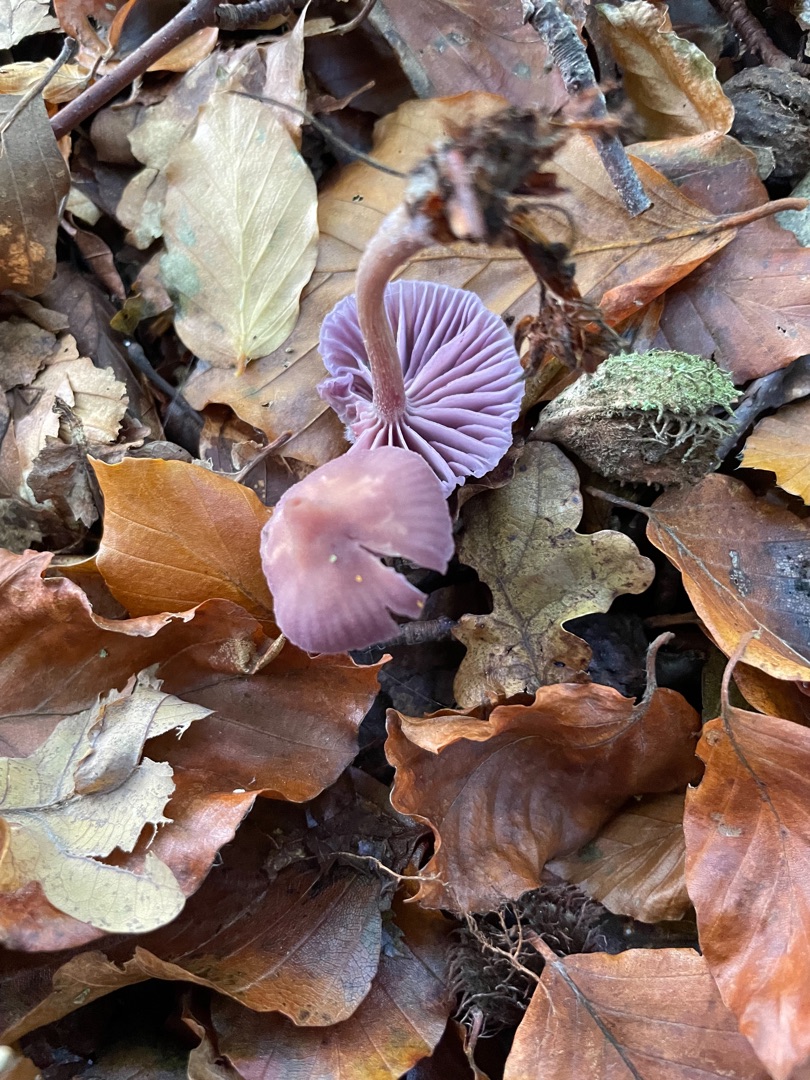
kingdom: Fungi
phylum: Basidiomycota
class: Agaricomycetes
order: Agaricales
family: Hydnangiaceae
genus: Laccaria
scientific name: Laccaria amethystina
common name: Violet ametysthat
